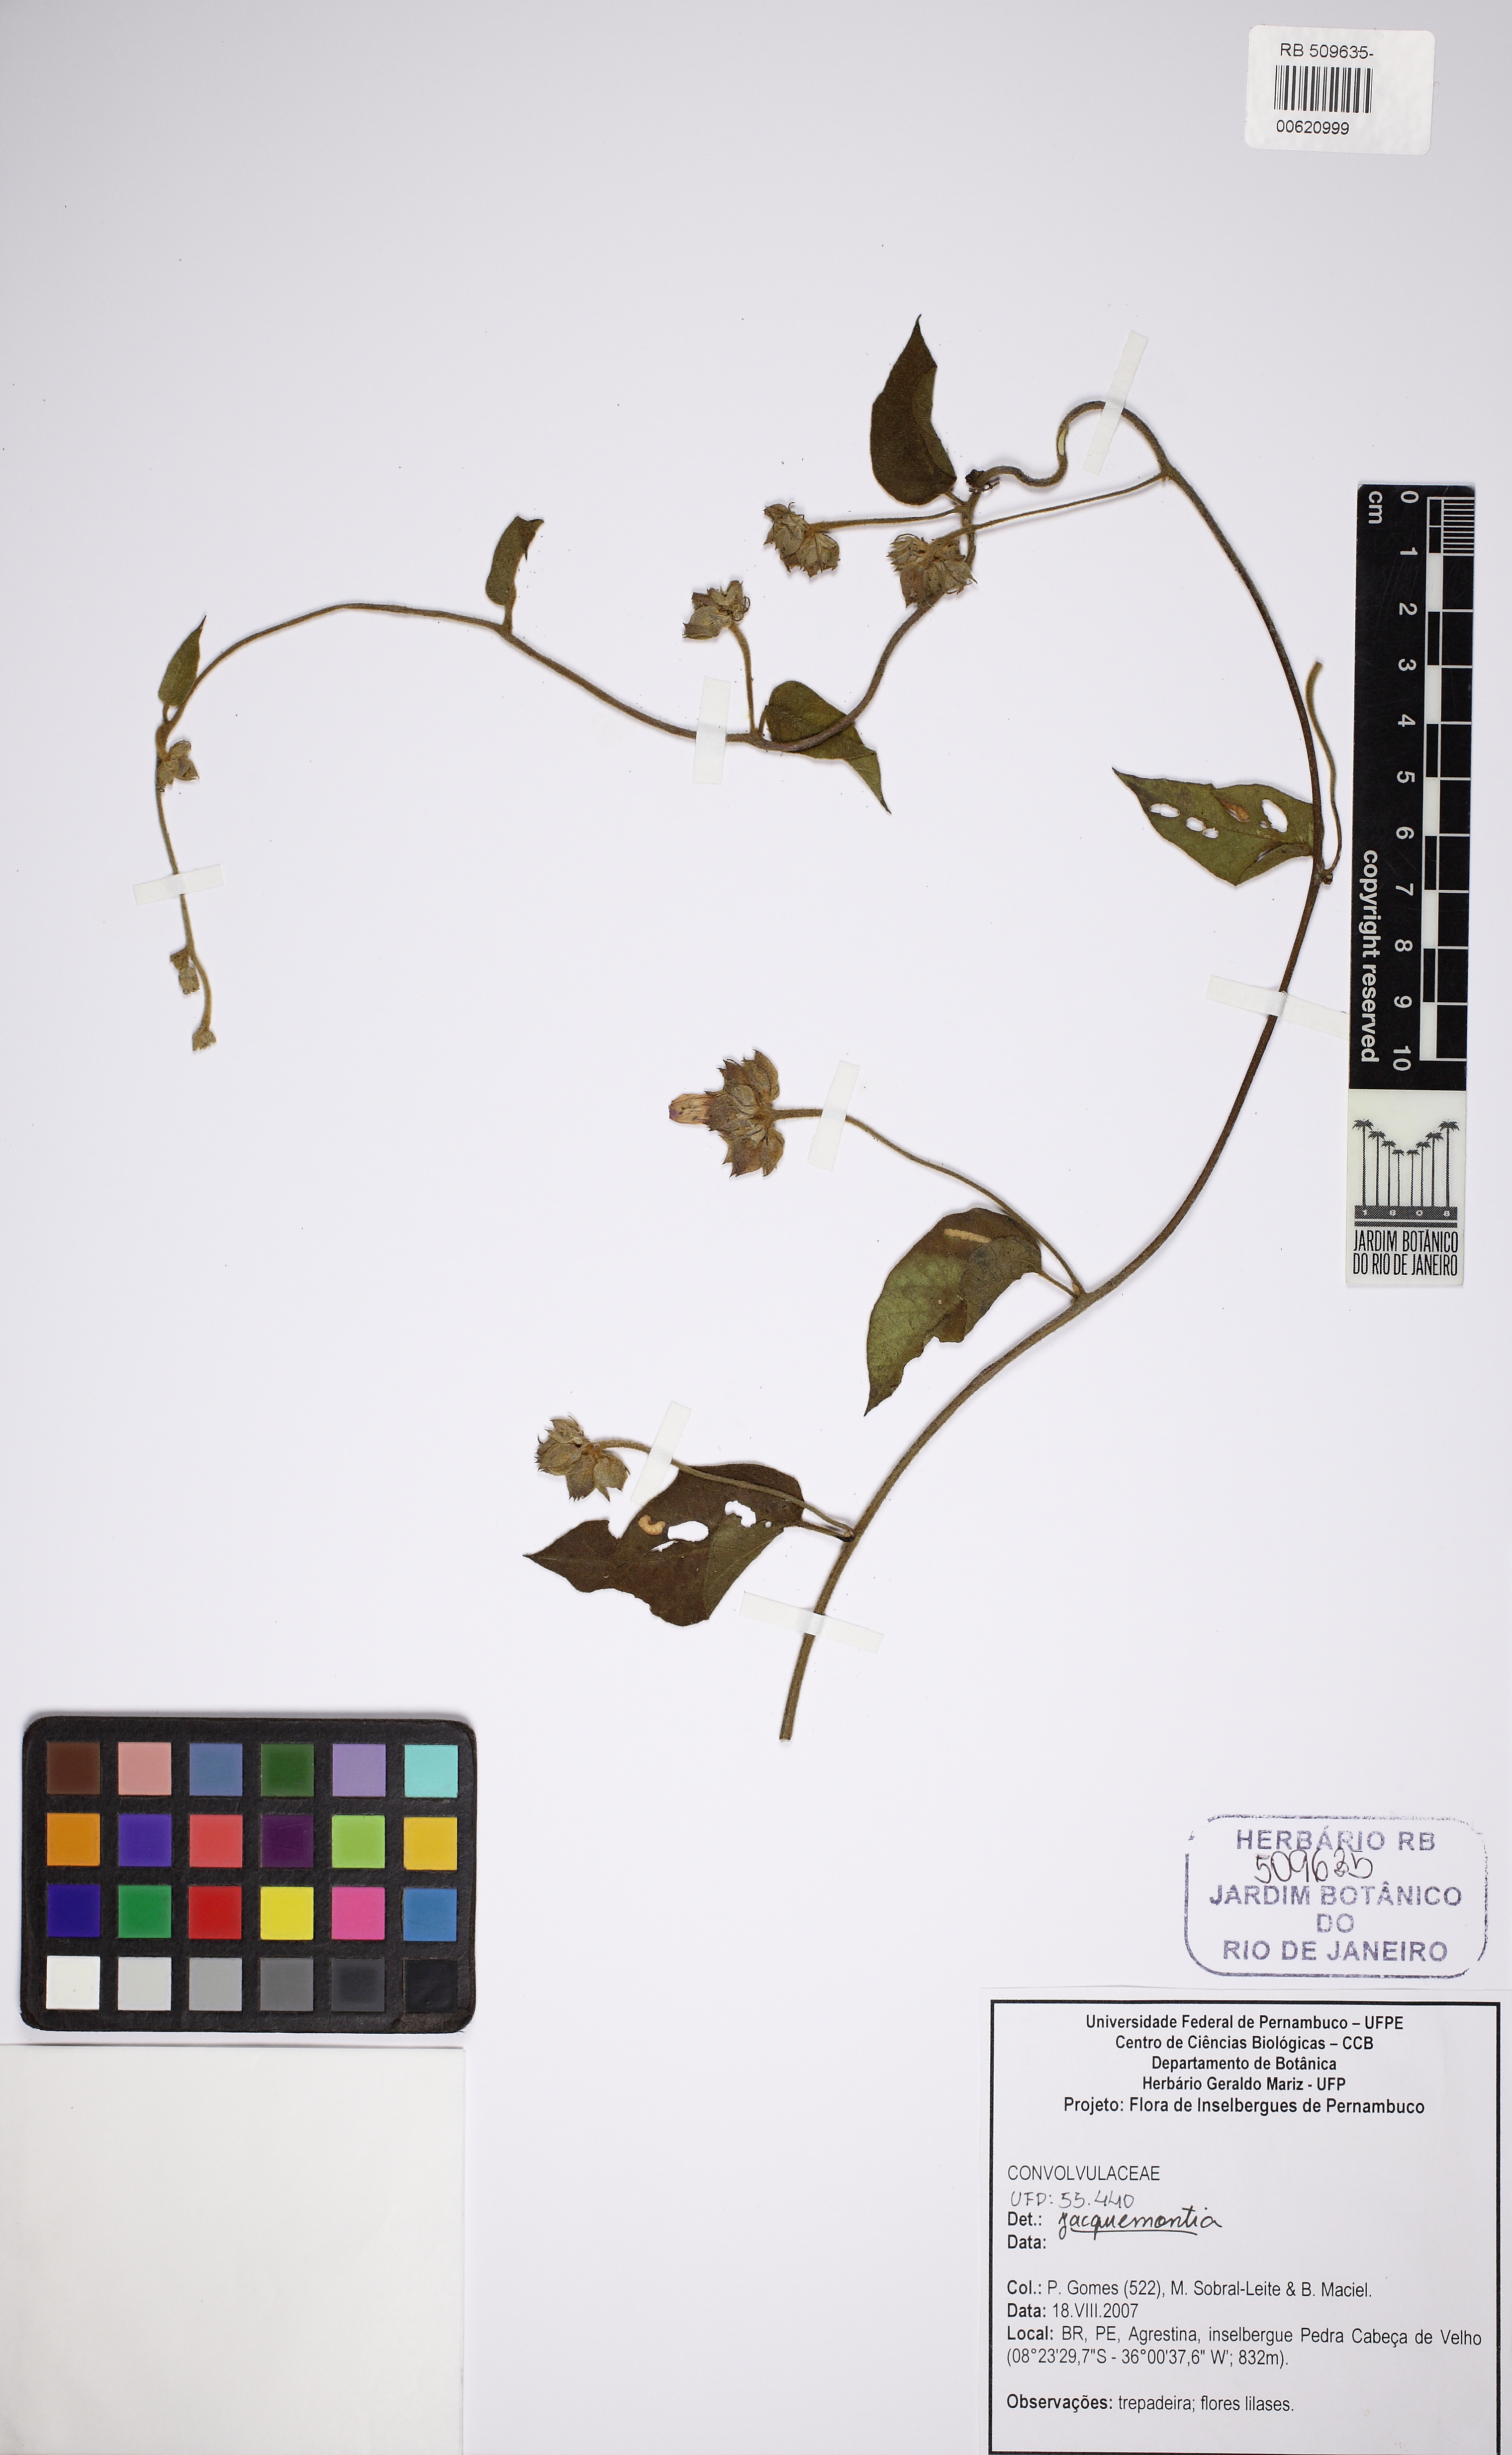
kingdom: Plantae
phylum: Tracheophyta
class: Magnoliopsida
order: Solanales
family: Convolvulaceae
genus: Jacquemontia
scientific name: Jacquemontia
